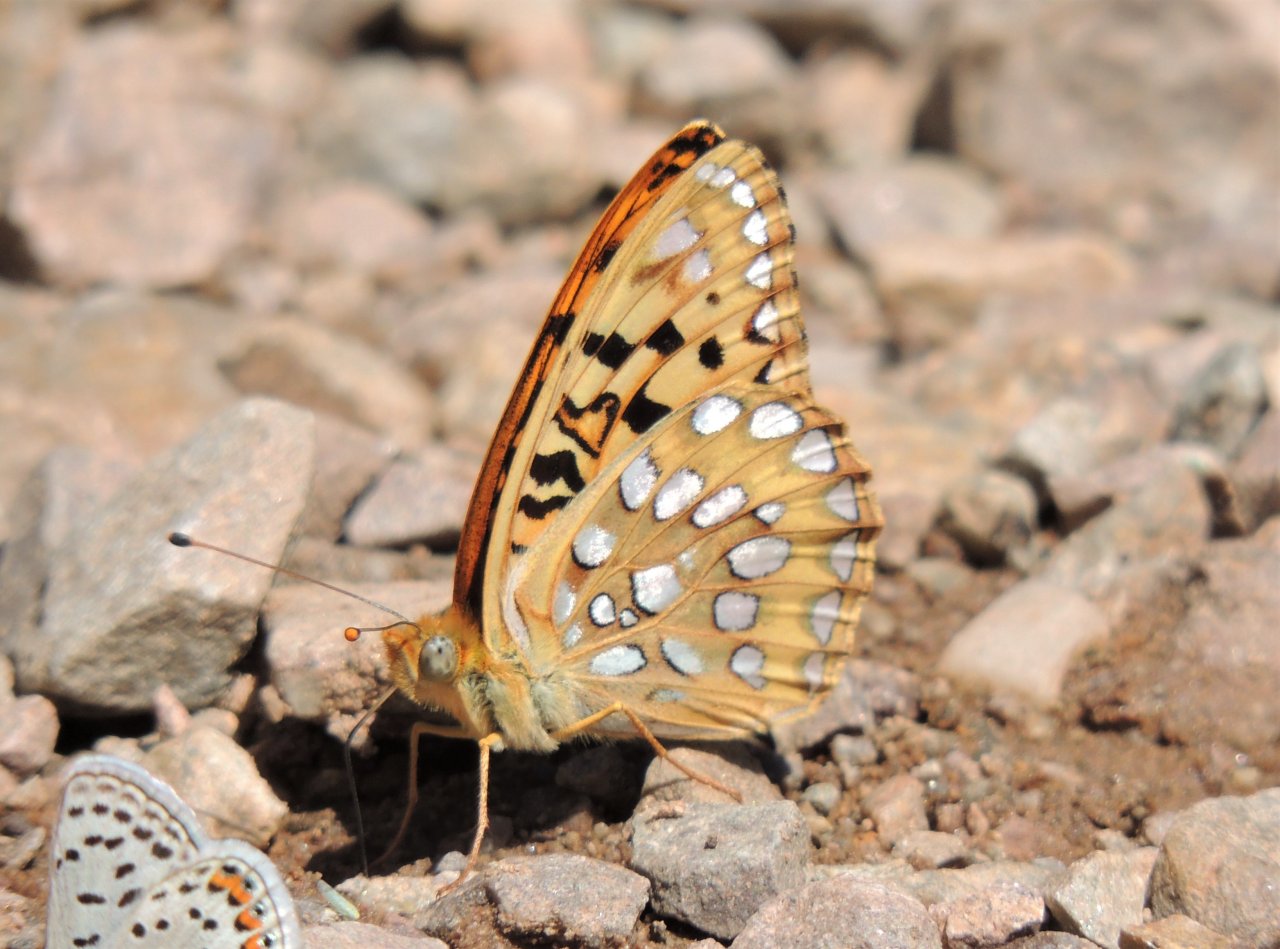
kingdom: Animalia
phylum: Arthropoda
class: Insecta
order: Lepidoptera
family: Nymphalidae
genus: Speyeria
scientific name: Speyeria zerene
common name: Zerene Fritillary
